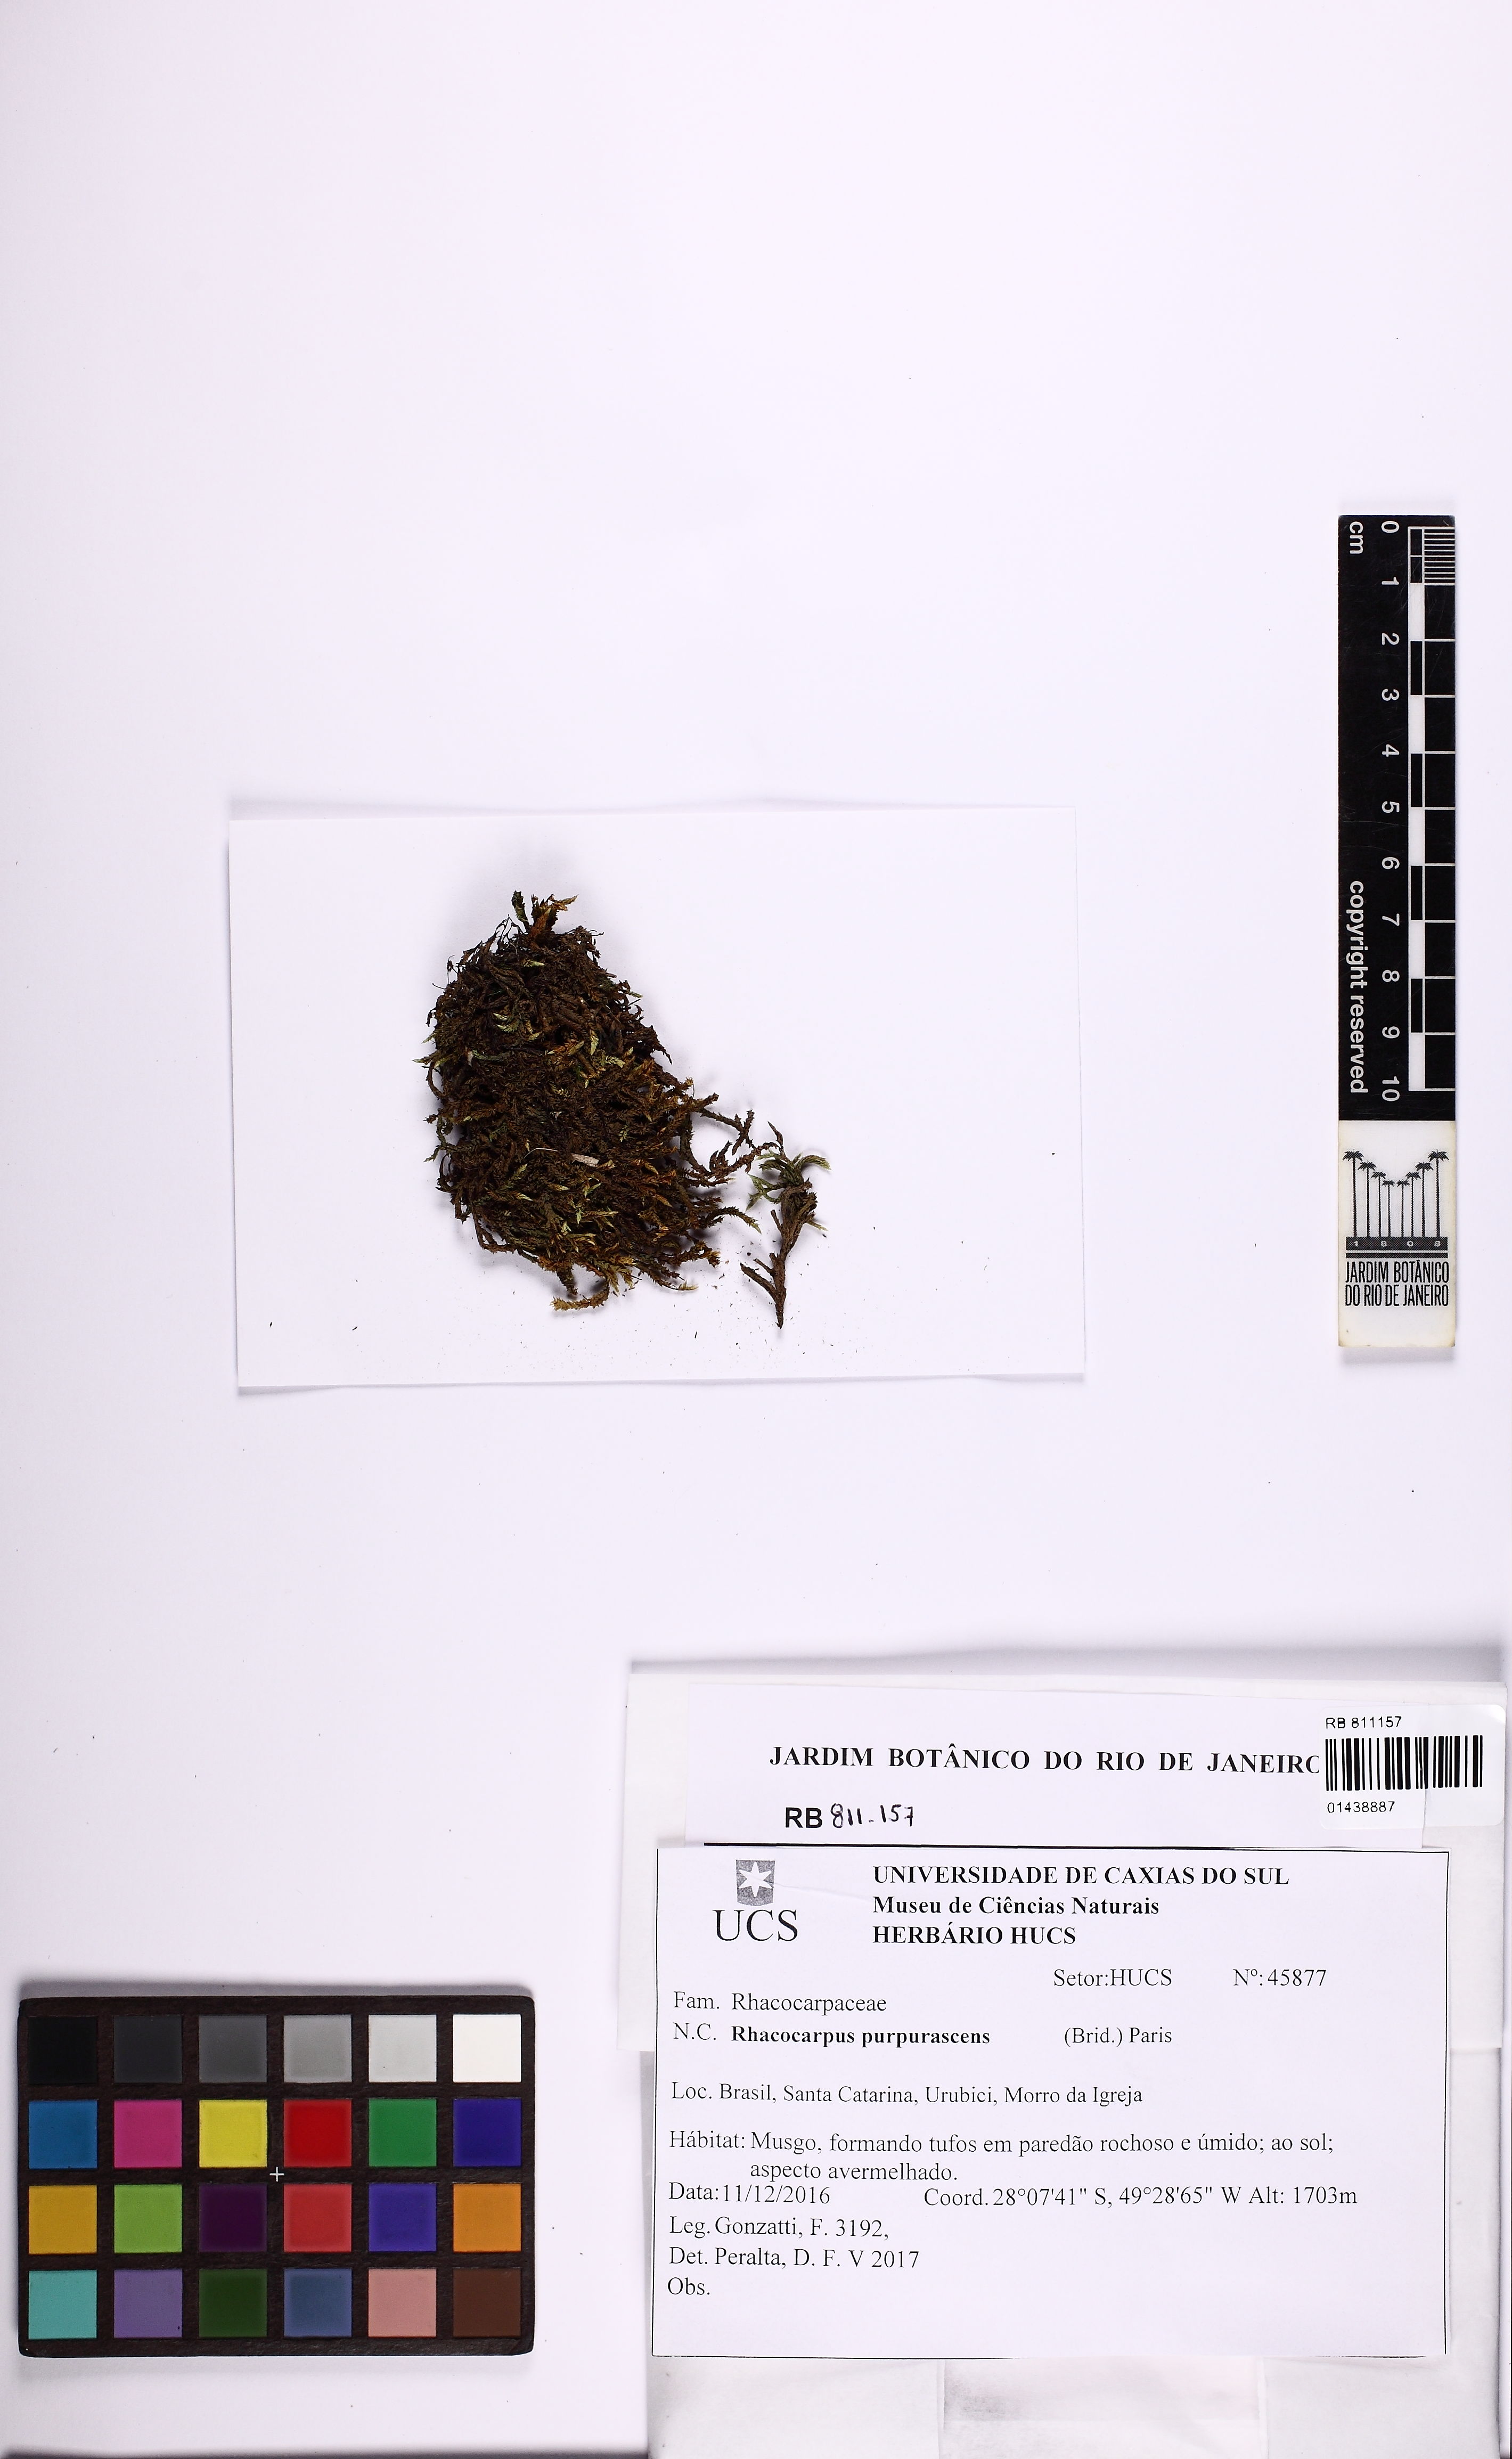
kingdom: Plantae
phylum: Bryophyta
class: Bryopsida
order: Hedwigiales
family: Hedwigiaceae
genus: Rhacocarpus
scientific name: Rhacocarpus purpurascens
